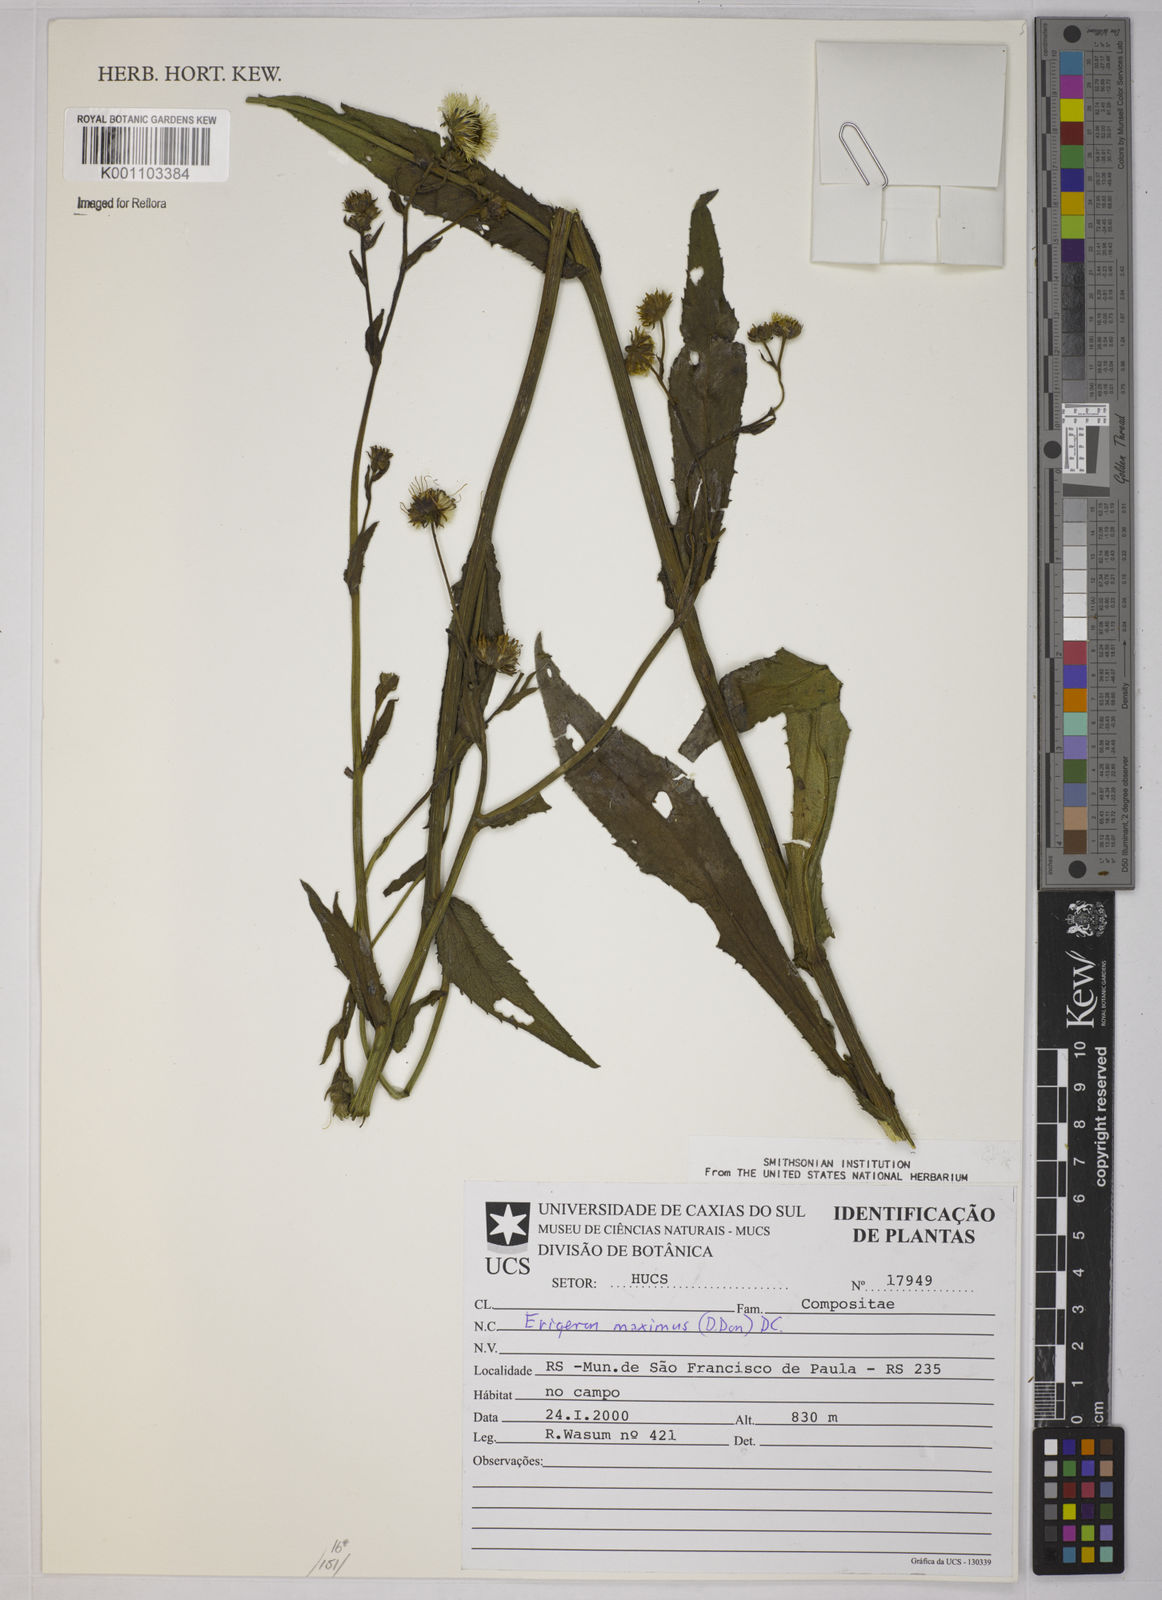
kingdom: Plantae
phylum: Tracheophyta
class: Magnoliopsida
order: Asterales
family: Asteraceae
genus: Leptostelma
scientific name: Leptostelma
